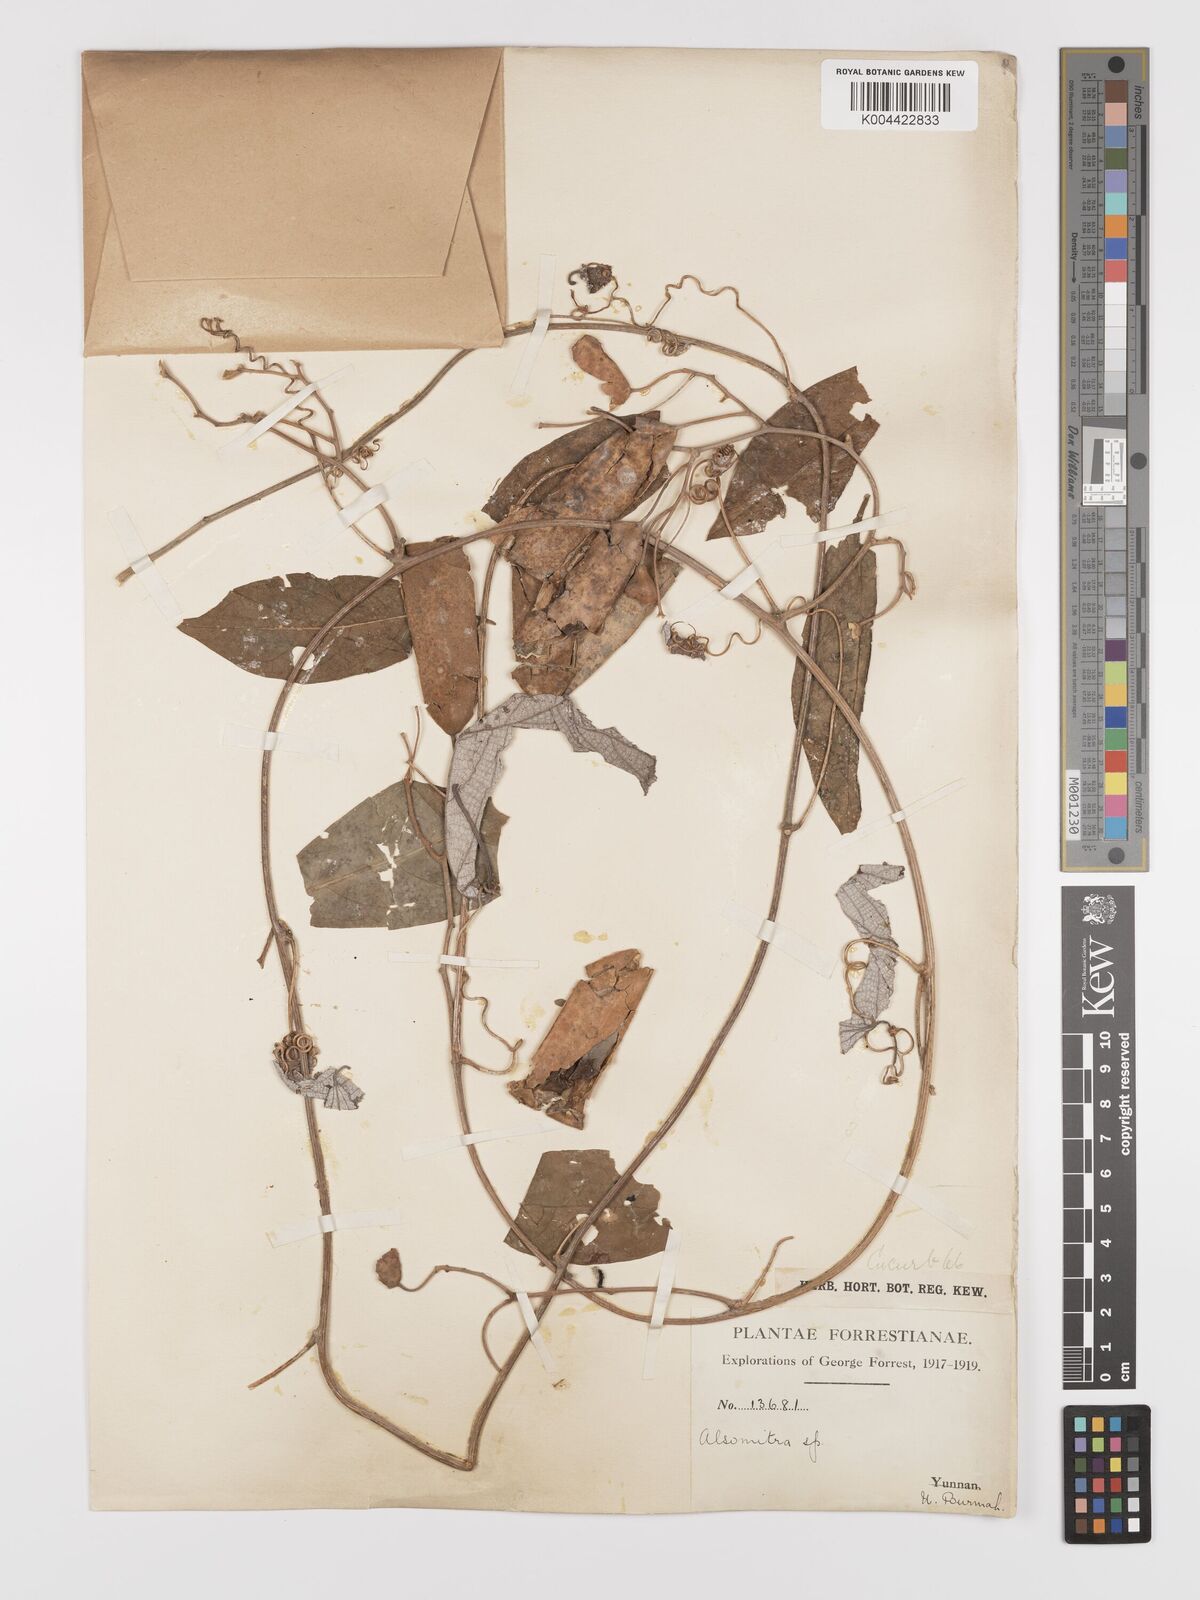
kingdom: Plantae
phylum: Tracheophyta
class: Magnoliopsida
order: Cucurbitales
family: Cucurbitaceae
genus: Neoalsomitra
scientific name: Neoalsomitra clavigera
